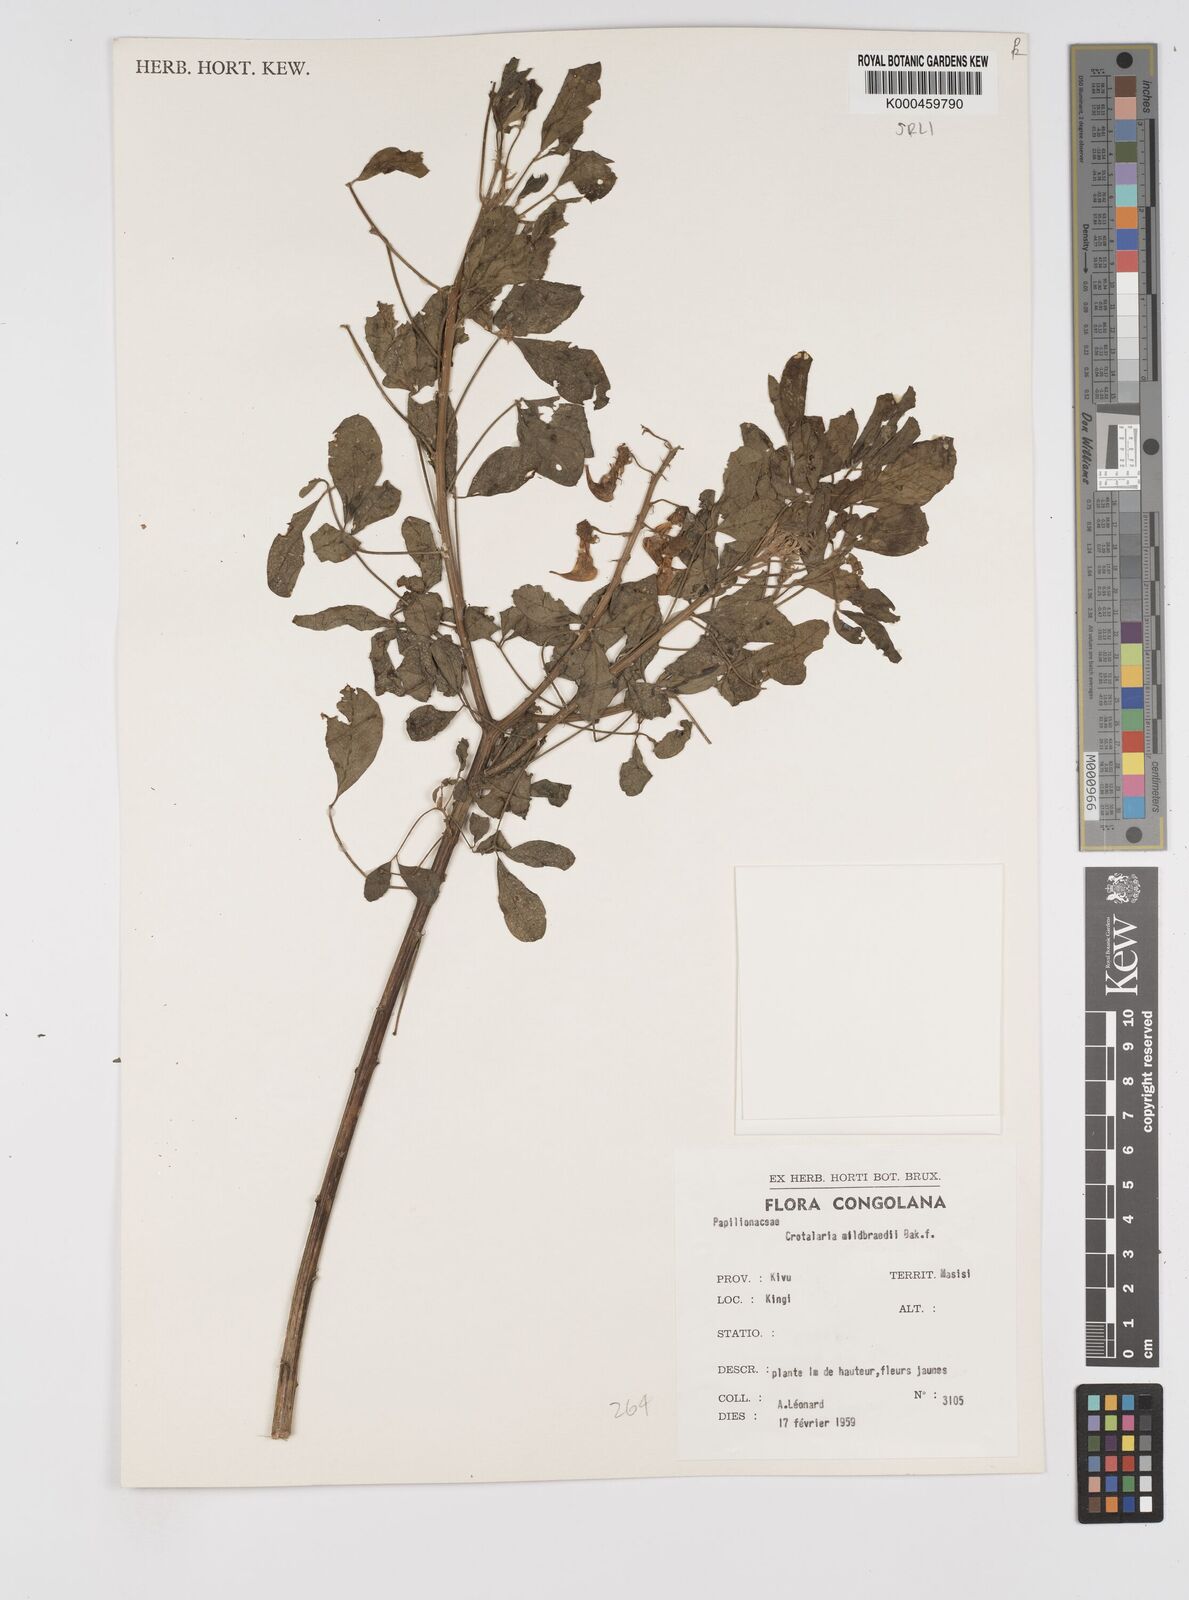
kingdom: Plantae
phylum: Tracheophyta
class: Magnoliopsida
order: Fabales
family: Fabaceae
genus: Crotalaria
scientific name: Crotalaria mildbraedii
